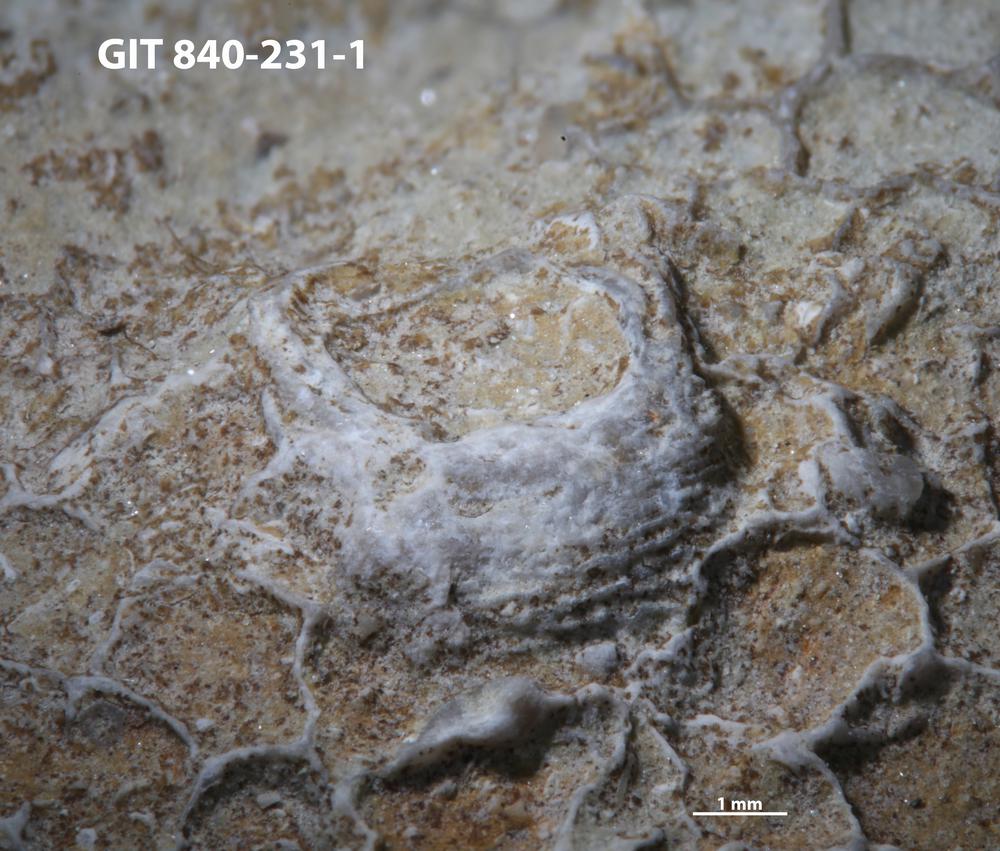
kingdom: Animalia
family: Cornulitidae
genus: Cornulites
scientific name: Cornulites
